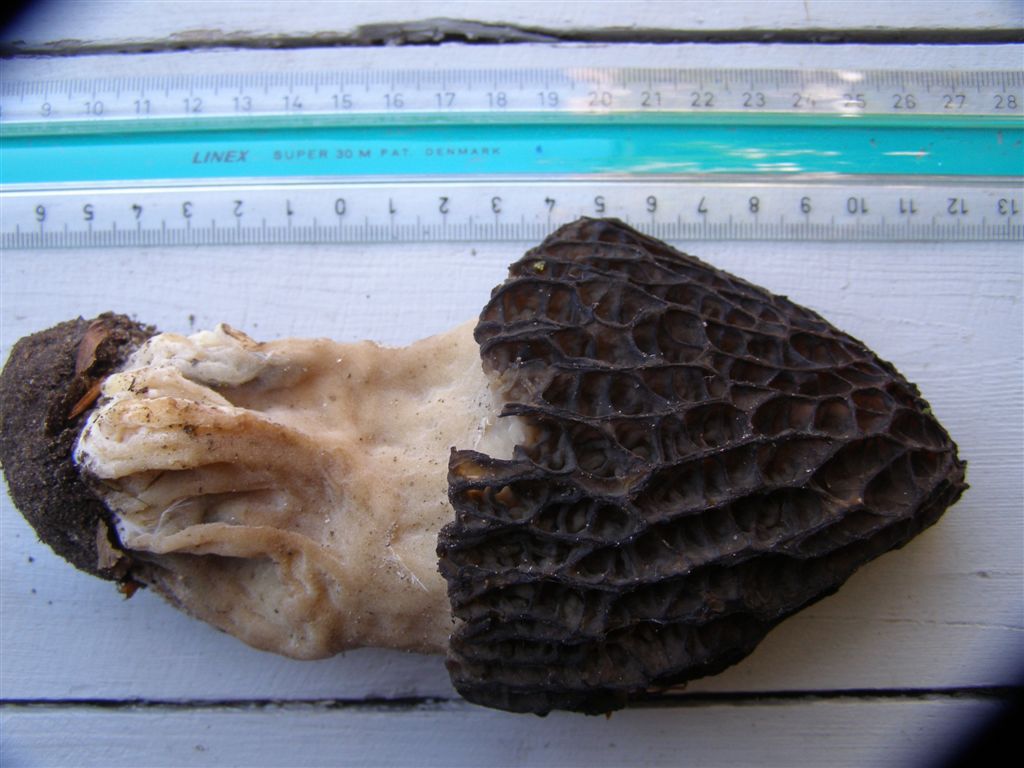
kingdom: Fungi
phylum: Ascomycota
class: Pezizomycetes
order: Pezizales
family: Morchellaceae
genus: Morchella
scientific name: Morchella importuna
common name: Landscaping black morel
